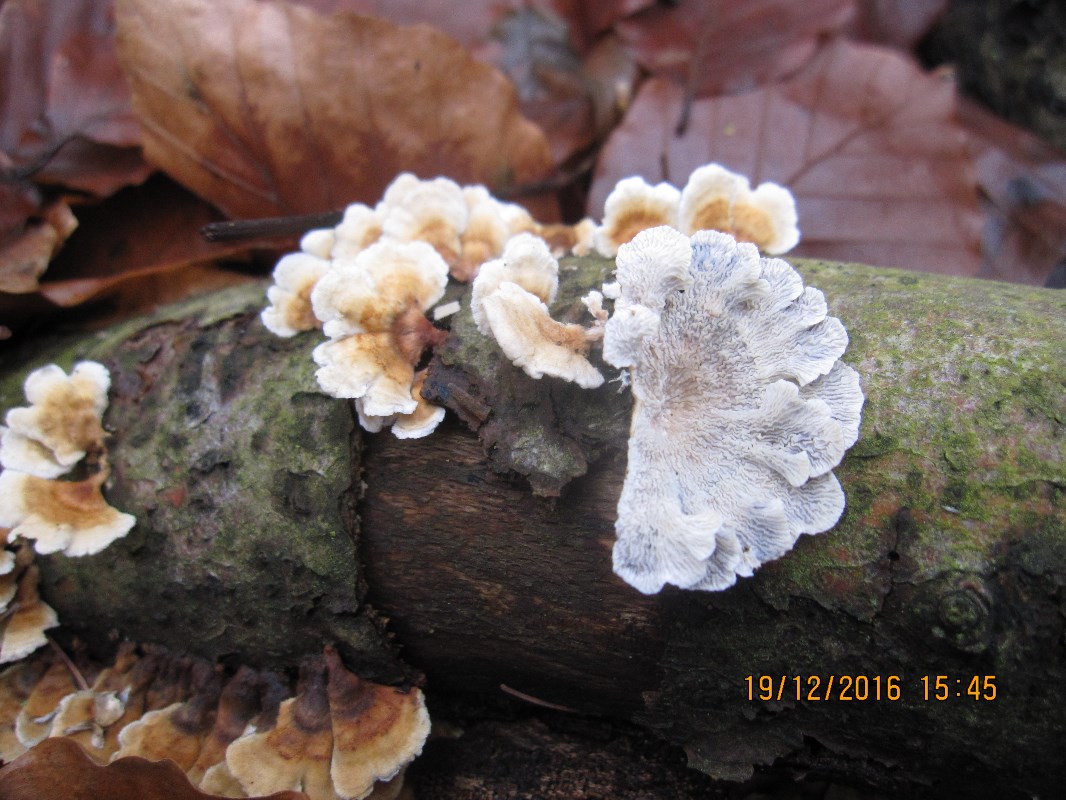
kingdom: Fungi
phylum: Basidiomycota
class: Agaricomycetes
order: Amylocorticiales
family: Amylocorticiaceae
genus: Plicaturopsis
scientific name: Plicaturopsis crispa
